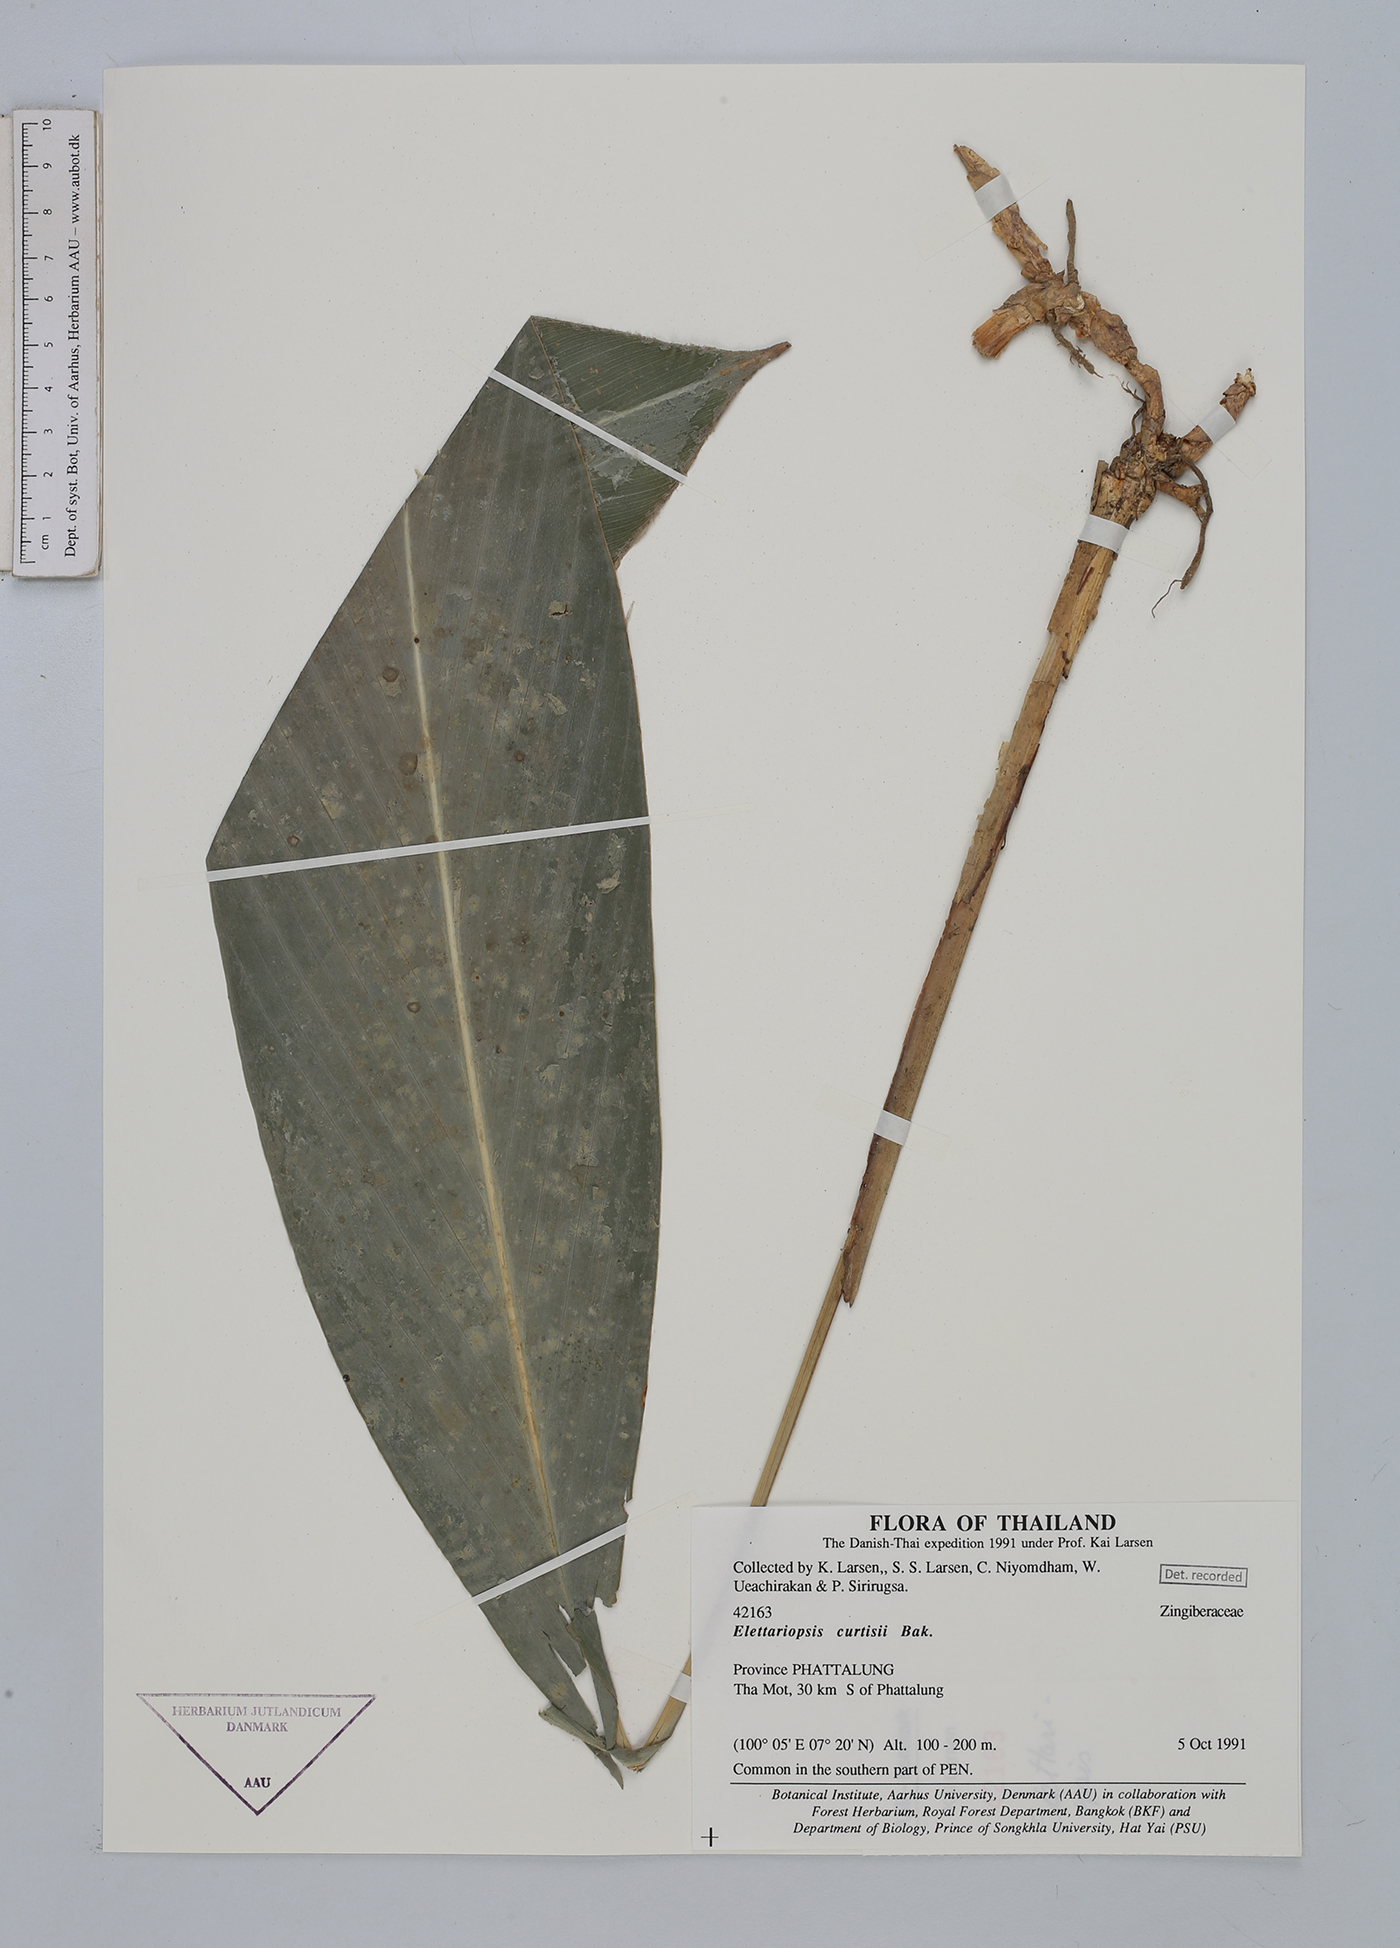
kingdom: Plantae
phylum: Tracheophyta
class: Liliopsida
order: Zingiberales
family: Zingiberaceae
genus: Amomum
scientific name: Amomum curtisii
